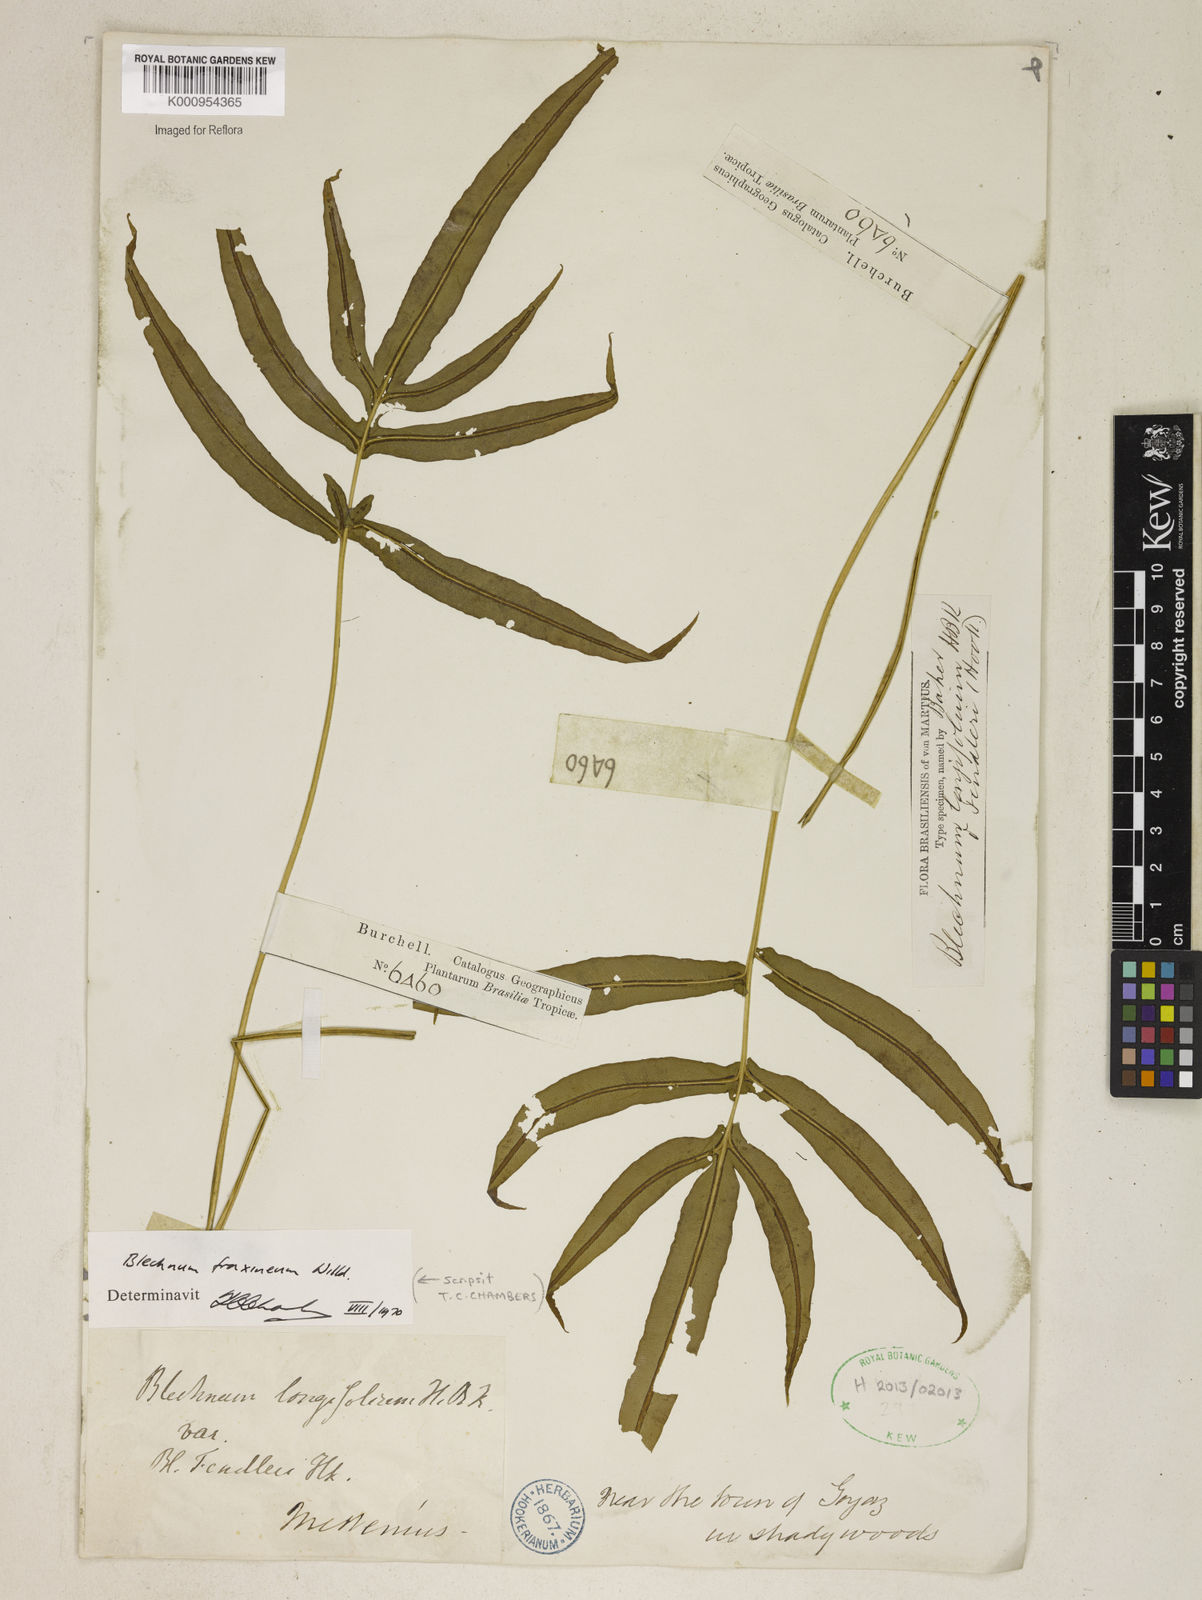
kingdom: Plantae
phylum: Tracheophyta
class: Polypodiopsida
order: Polypodiales
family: Blechnaceae
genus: Blechnum
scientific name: Blechnum heringeri
